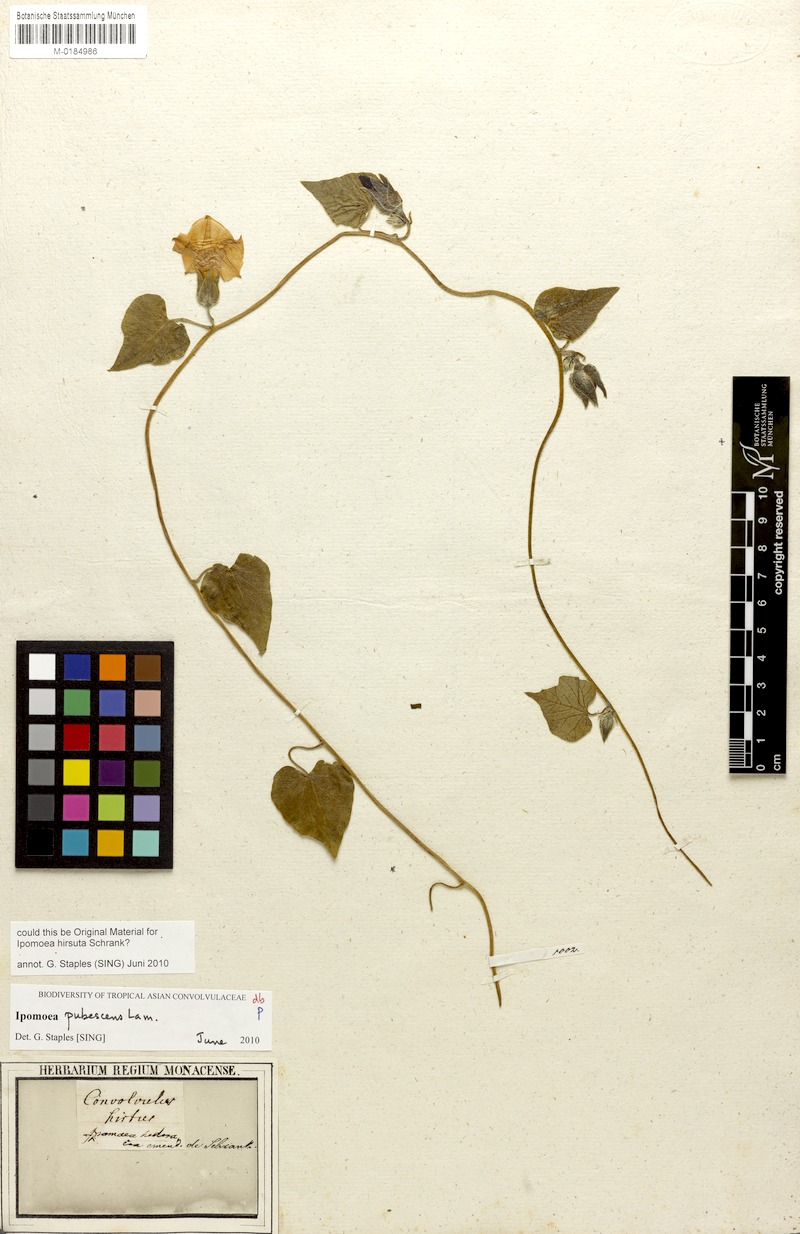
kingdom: Plantae
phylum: Tracheophyta
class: Magnoliopsida
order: Solanales
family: Convolvulaceae
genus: Ipomoea
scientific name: Ipomoea pubescens
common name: Silky morning-glory
